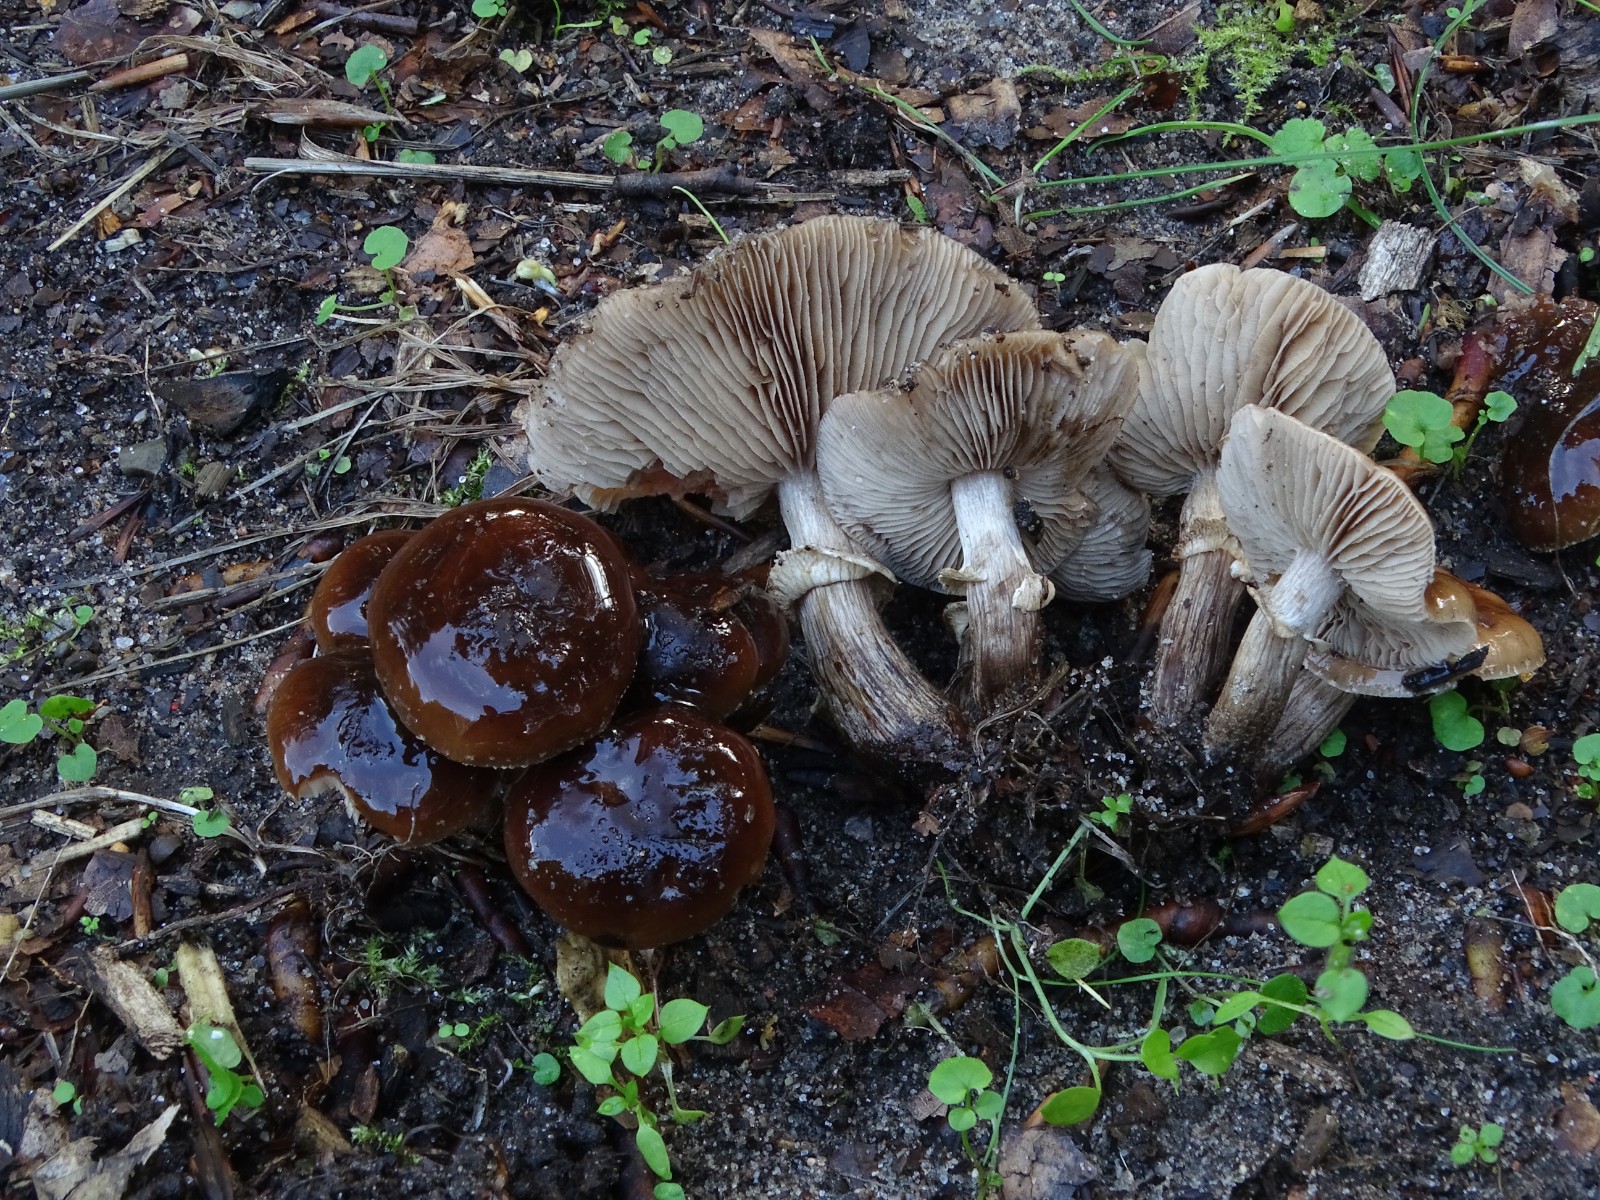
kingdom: Fungi
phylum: Basidiomycota
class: Agaricomycetes
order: Agaricales
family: Tubariaceae
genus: Cyclocybe
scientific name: Cyclocybe erebia
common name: mørk agerhat
